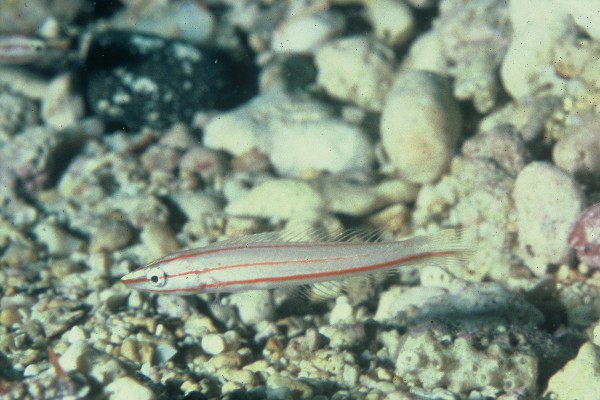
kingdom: Animalia
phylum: Chordata
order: Perciformes
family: Labridae
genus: Hologymnosus
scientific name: Hologymnosus doliatus
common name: Pastel ringwrasse
